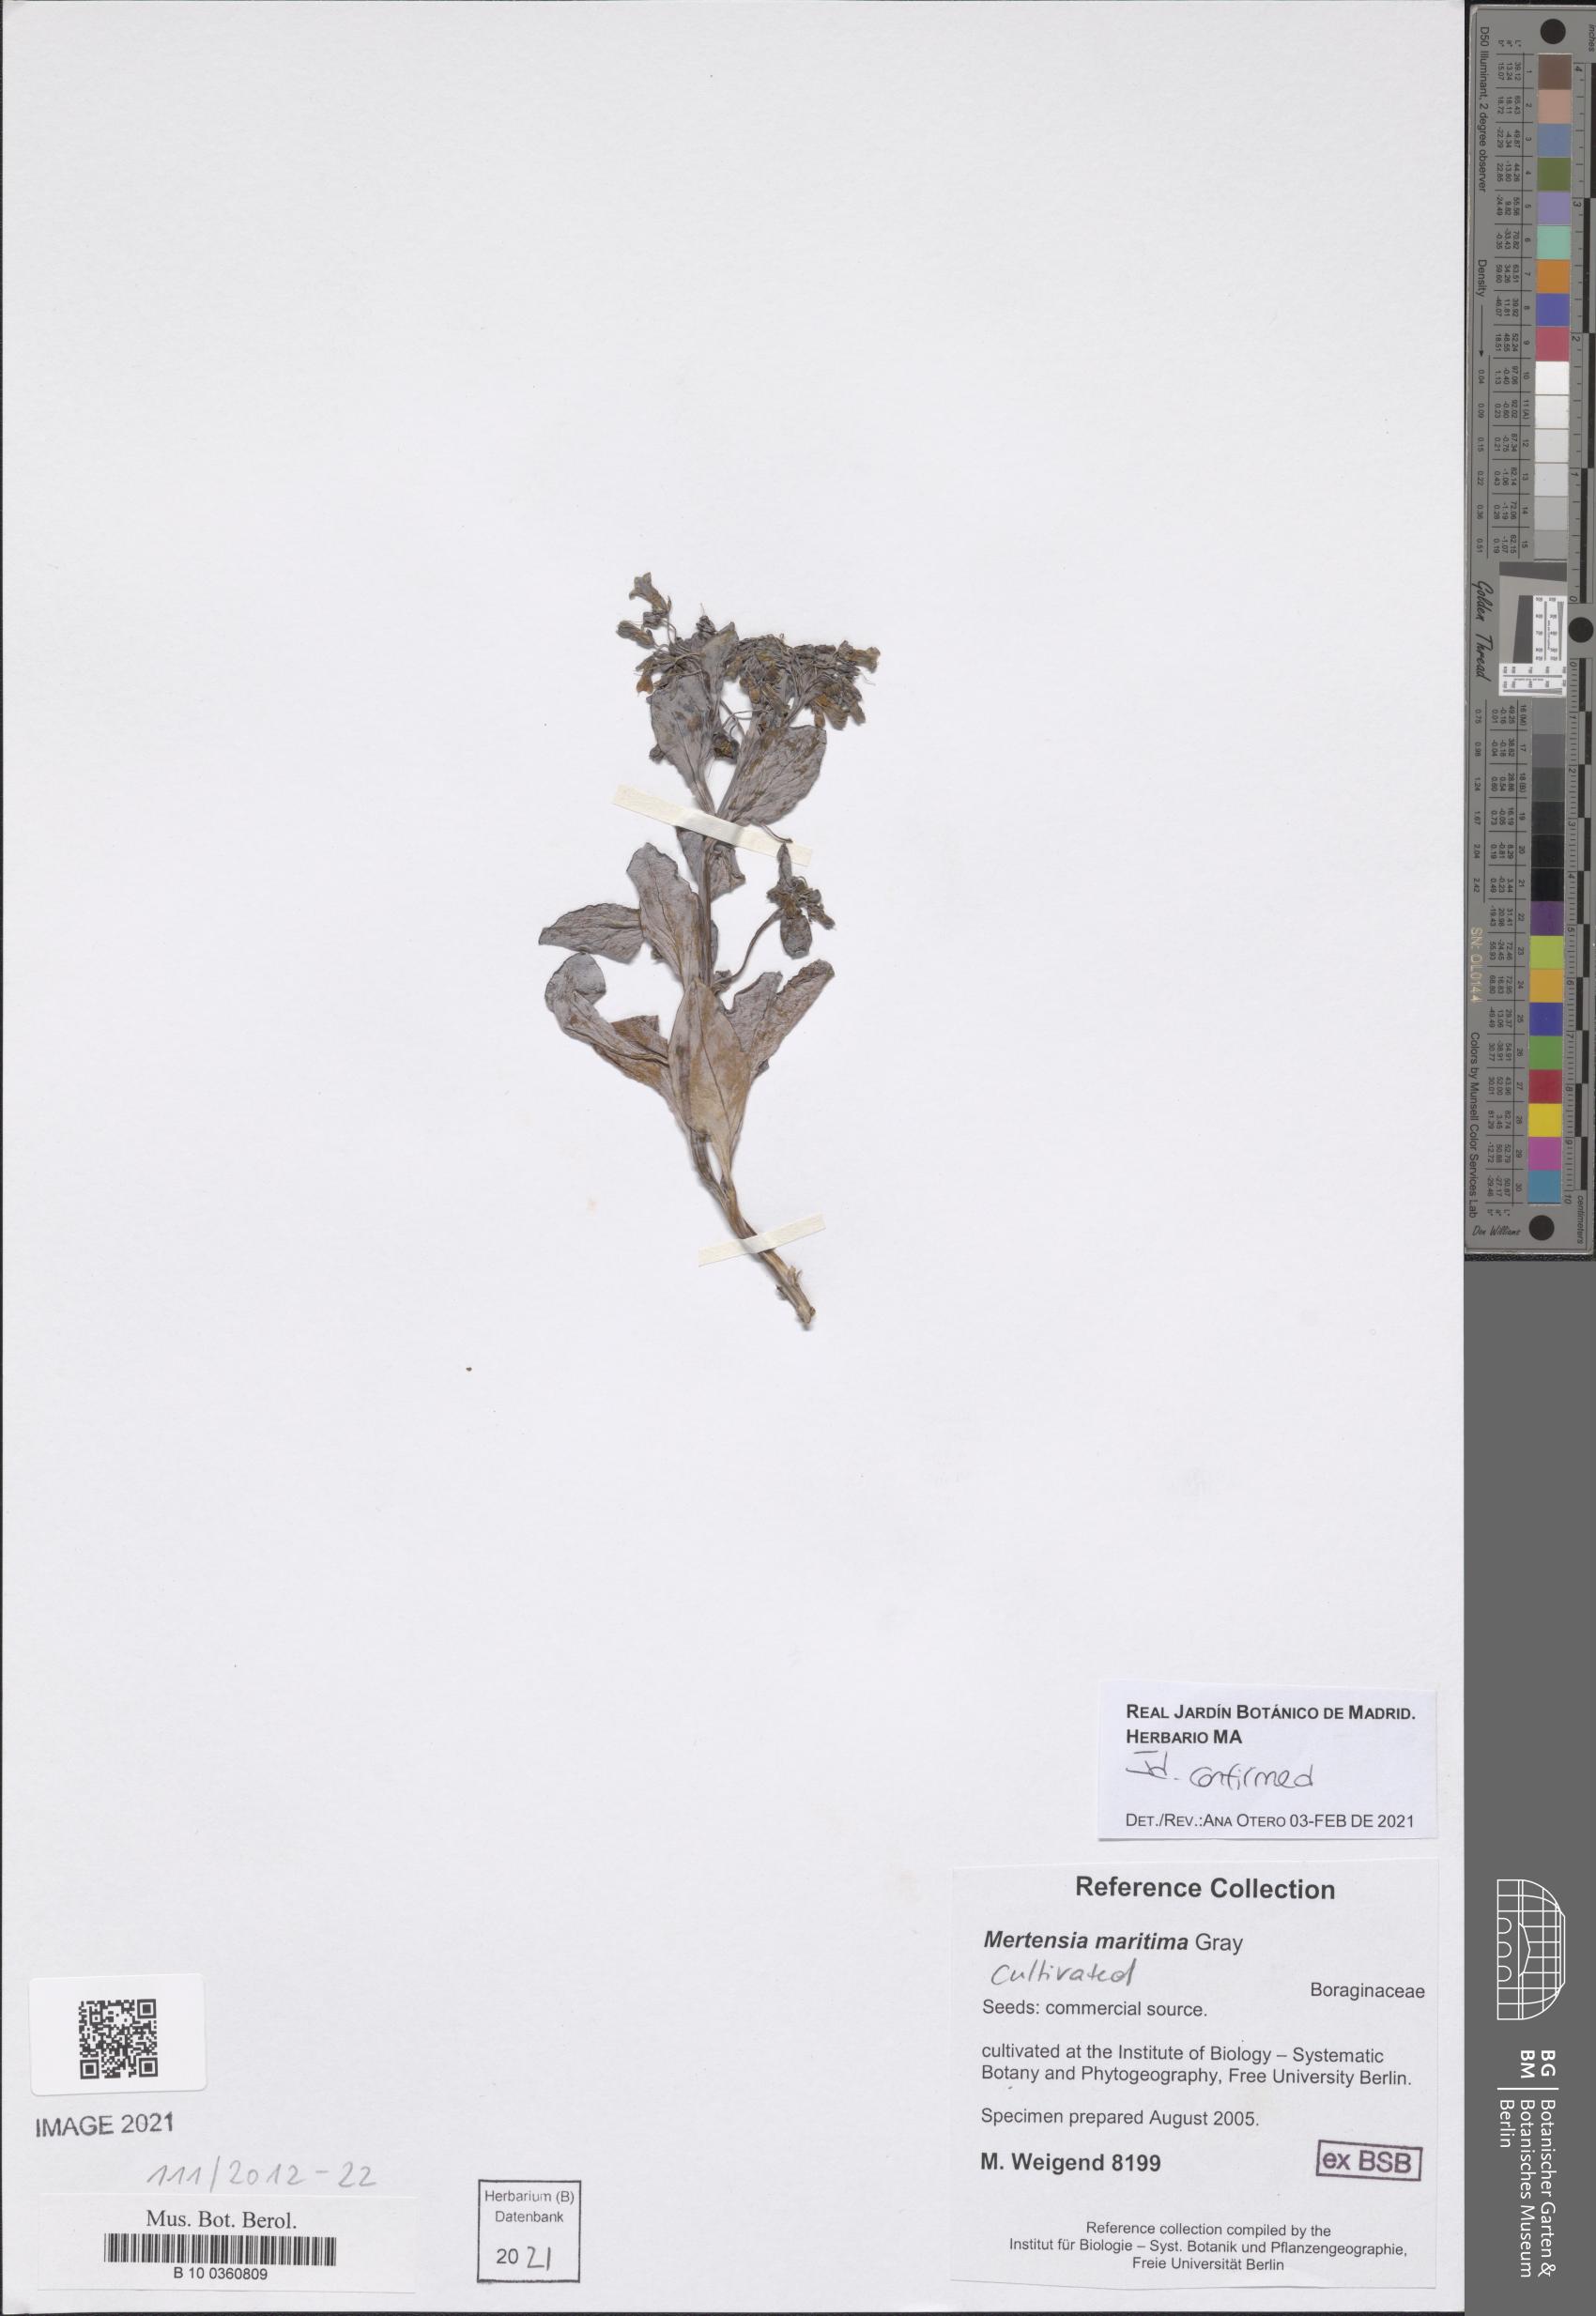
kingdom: Plantae
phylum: Tracheophyta
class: Magnoliopsida
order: Boraginales
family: Boraginaceae
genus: Mertensia
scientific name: Mertensia maritima
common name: Oysterplant
